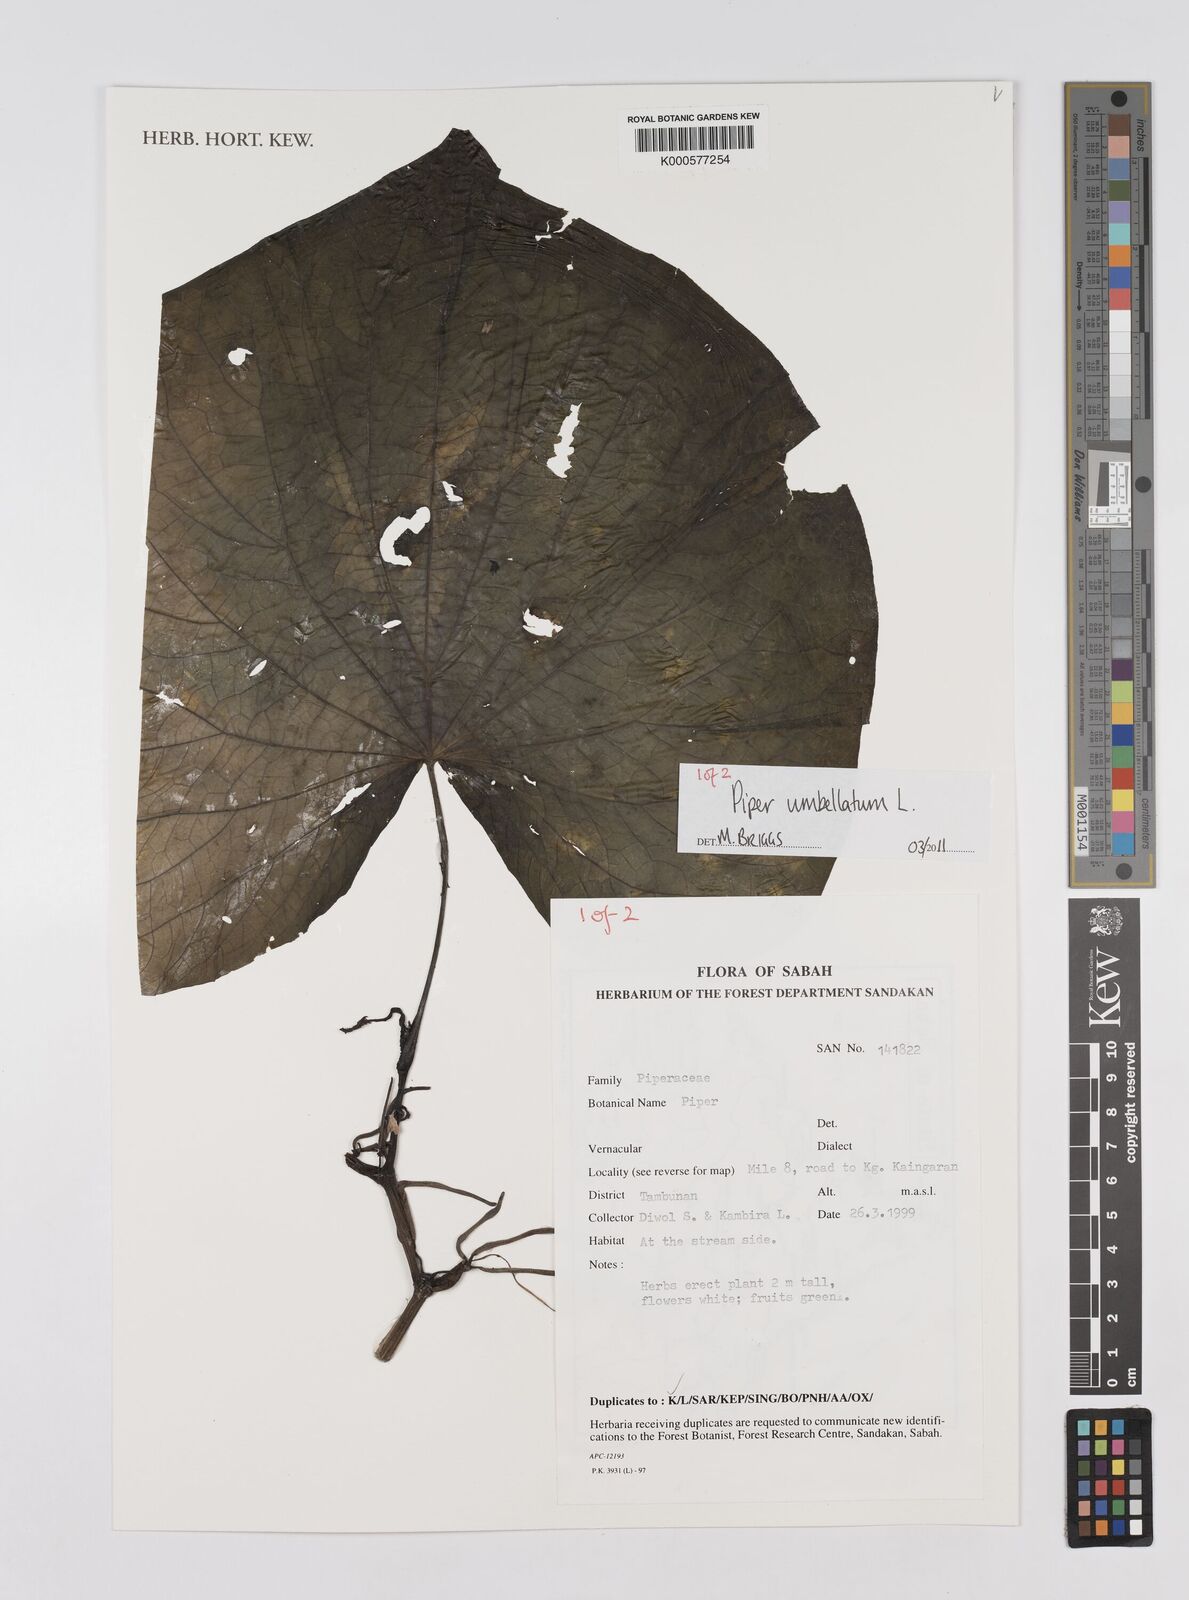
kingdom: Plantae
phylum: Tracheophyta
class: Magnoliopsida
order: Piperales
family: Piperaceae
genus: Piper
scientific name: Piper umbellatum
